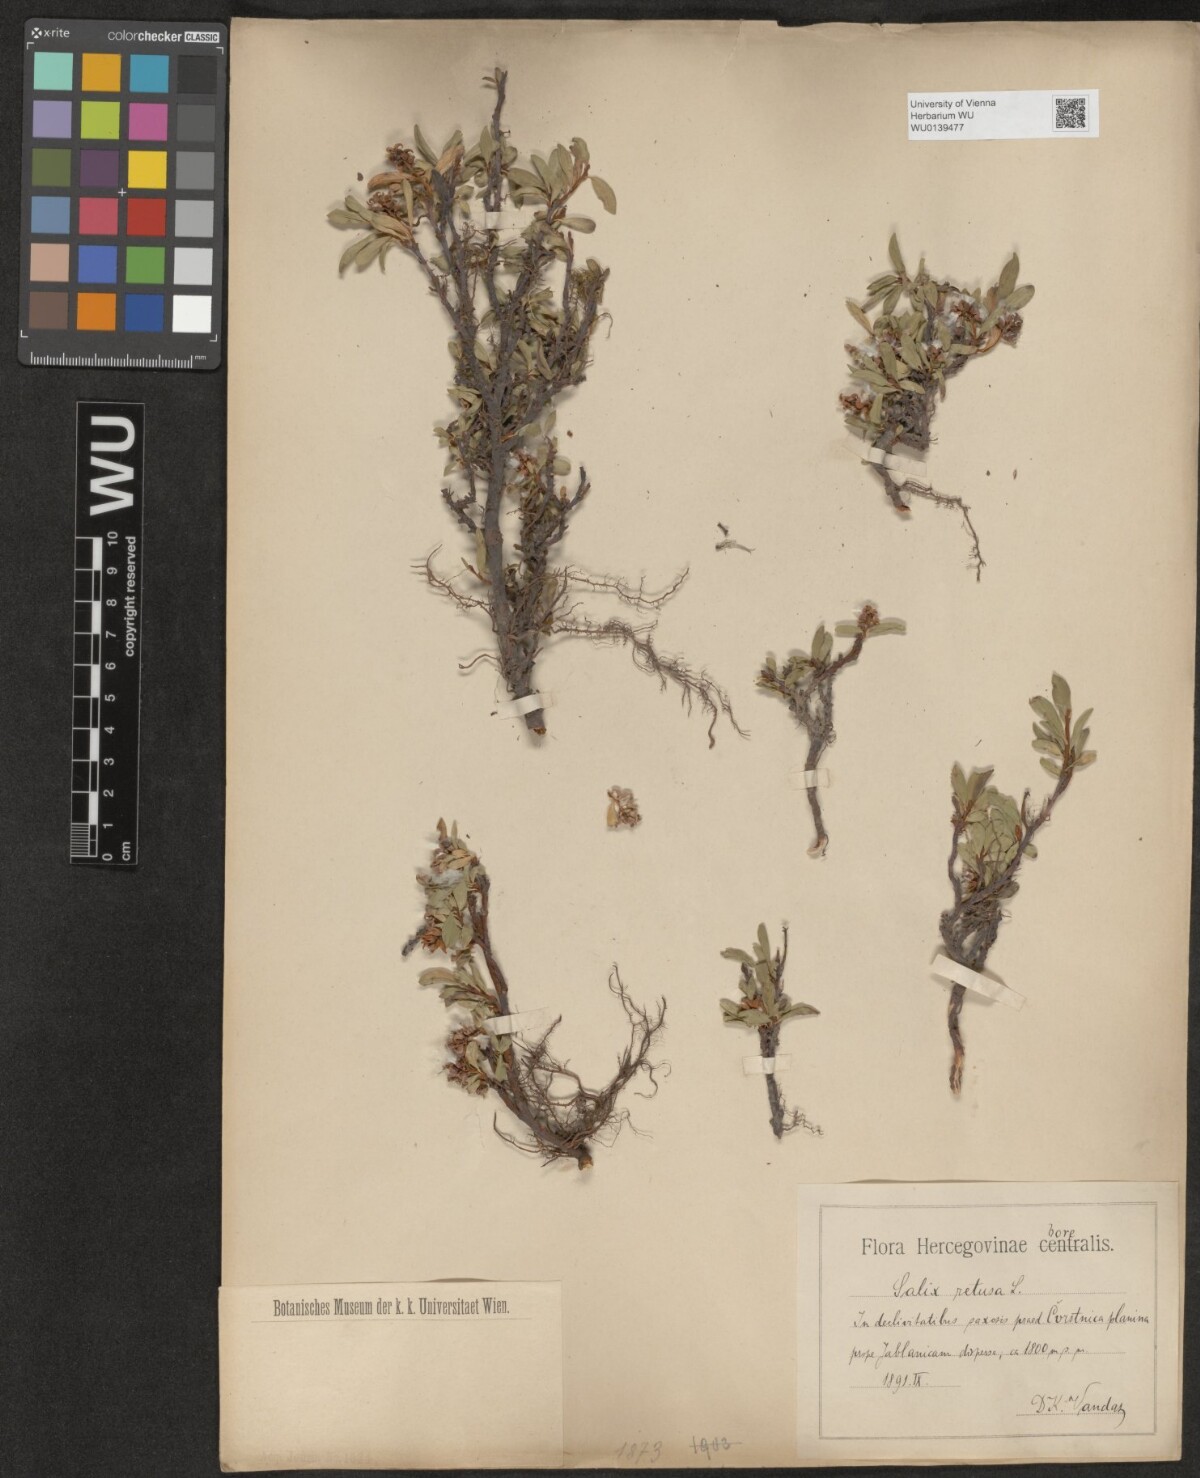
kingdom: Plantae
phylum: Tracheophyta
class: Magnoliopsida
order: Malpighiales
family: Salicaceae
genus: Salix
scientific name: Salix retusa
